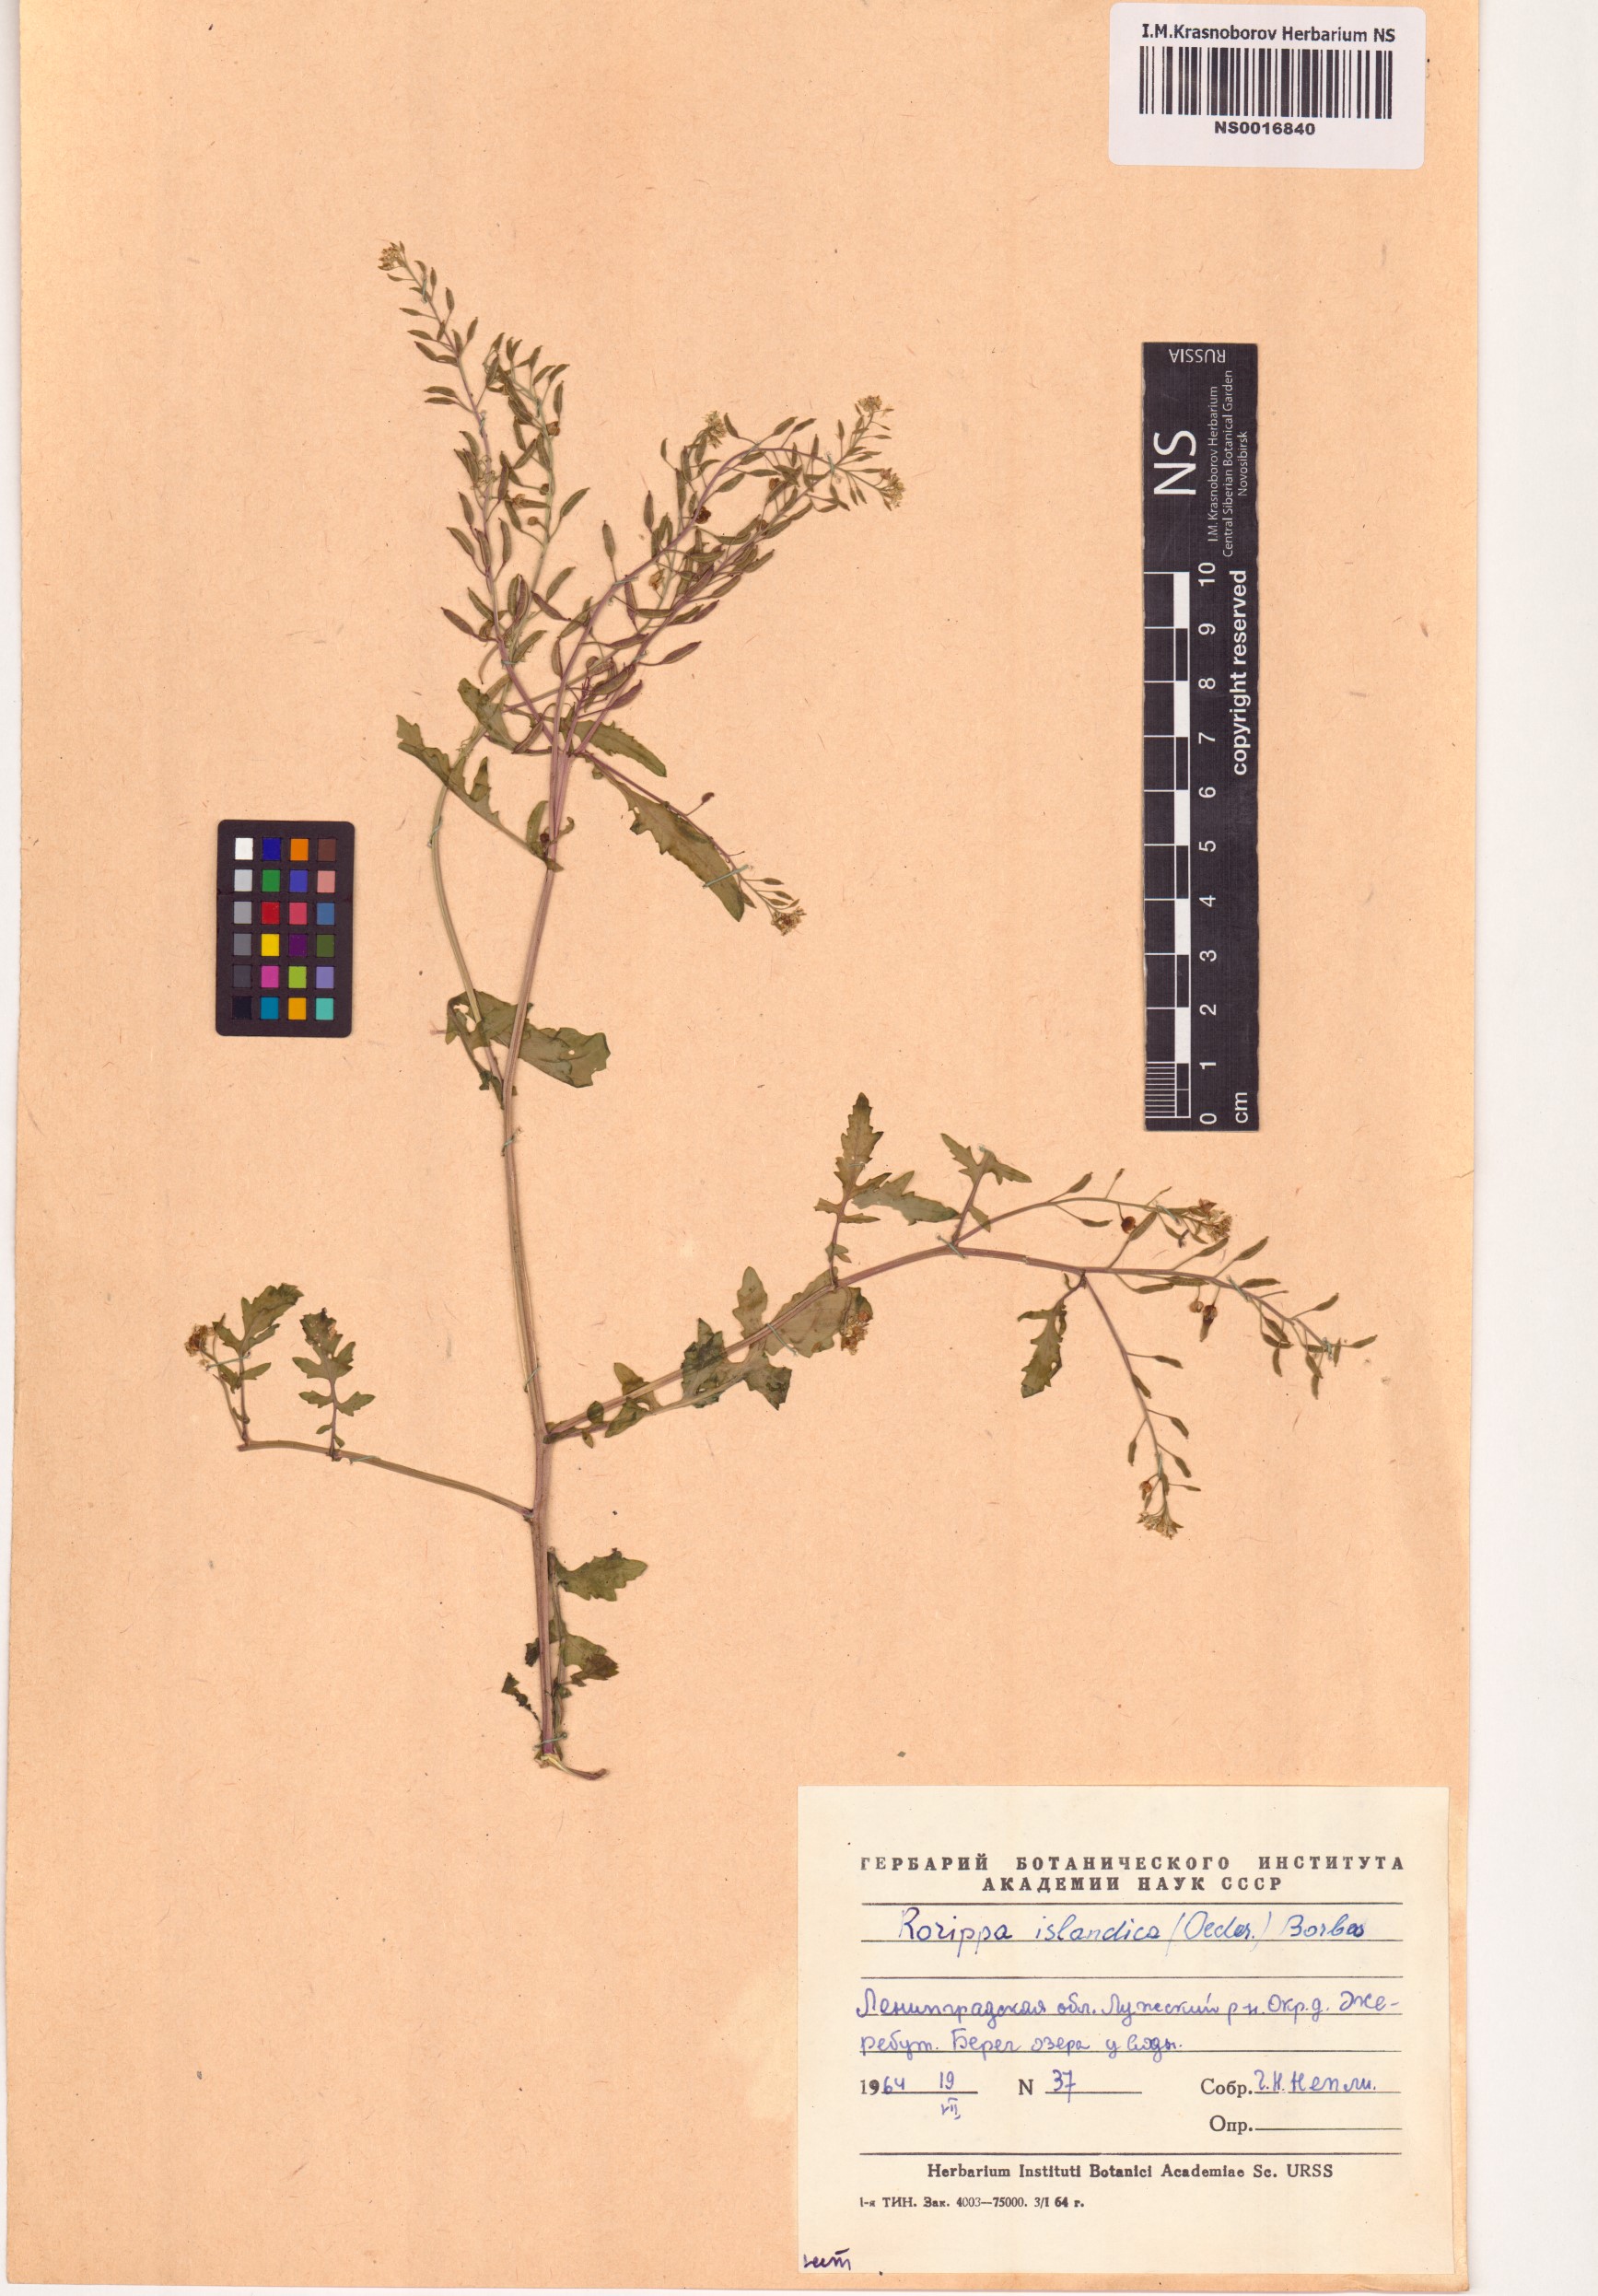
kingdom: Plantae
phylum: Tracheophyta
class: Magnoliopsida
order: Brassicales
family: Brassicaceae
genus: Rorippa
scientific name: Rorippa islandica
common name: Marsh cress
